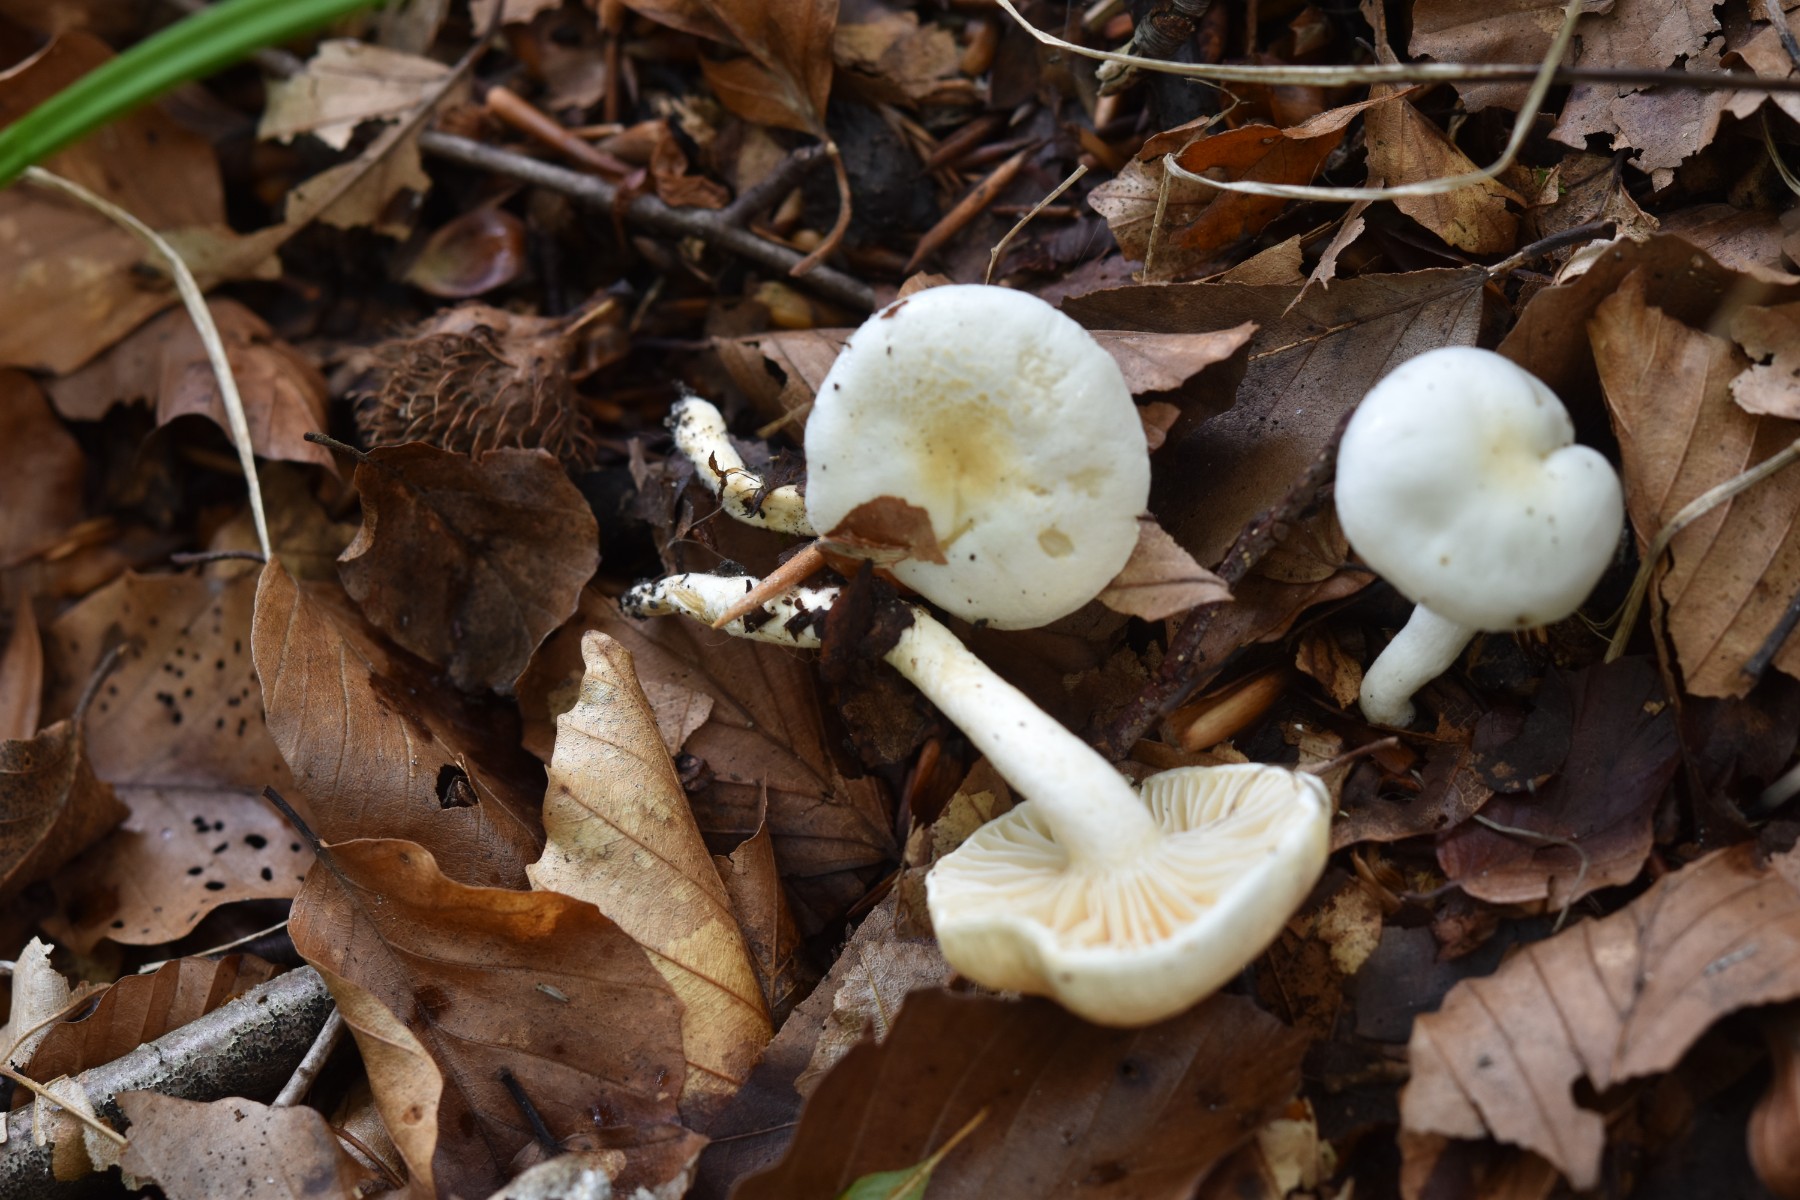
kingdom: Fungi
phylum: Basidiomycota
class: Agaricomycetes
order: Agaricales
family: Hygrophoraceae
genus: Hygrophorus
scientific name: Hygrophorus discoxanthus
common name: ildelugtende sneglehat
